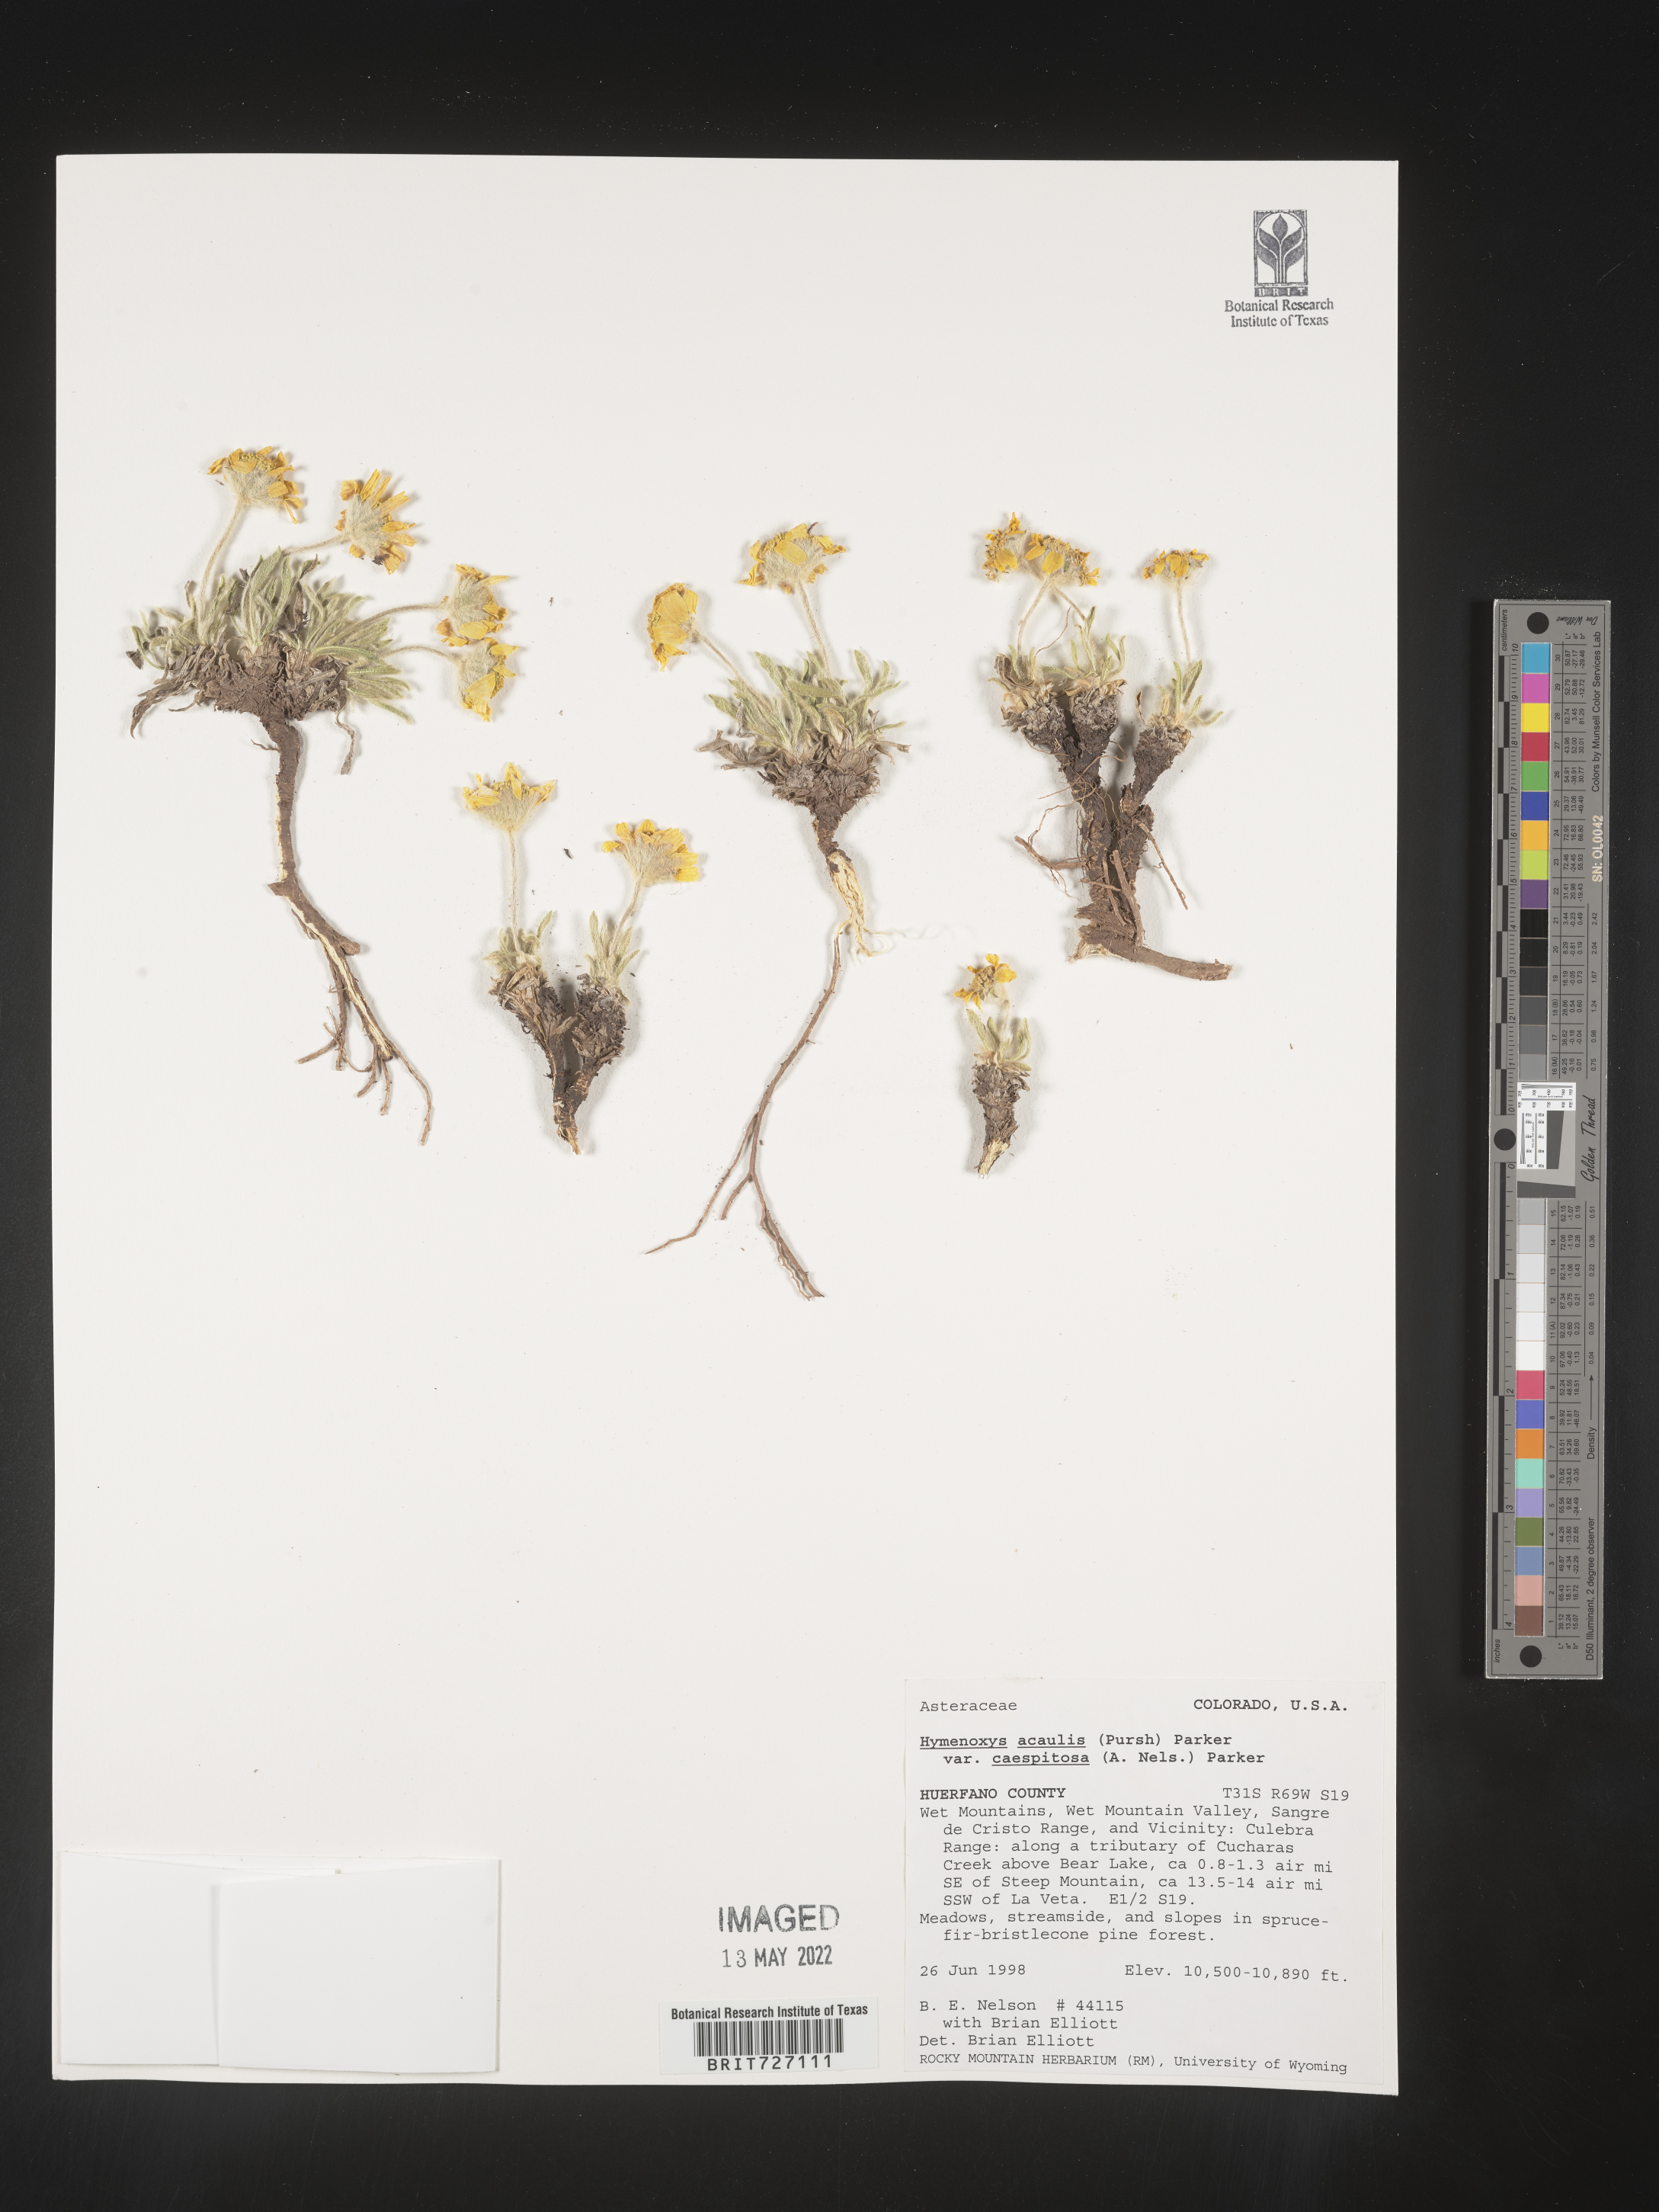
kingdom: Plantae
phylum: Tracheophyta
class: Magnoliopsida
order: Asterales
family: Asteraceae
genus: Tetraneuris
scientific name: Tetraneuris acaulis
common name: Butte marigold
